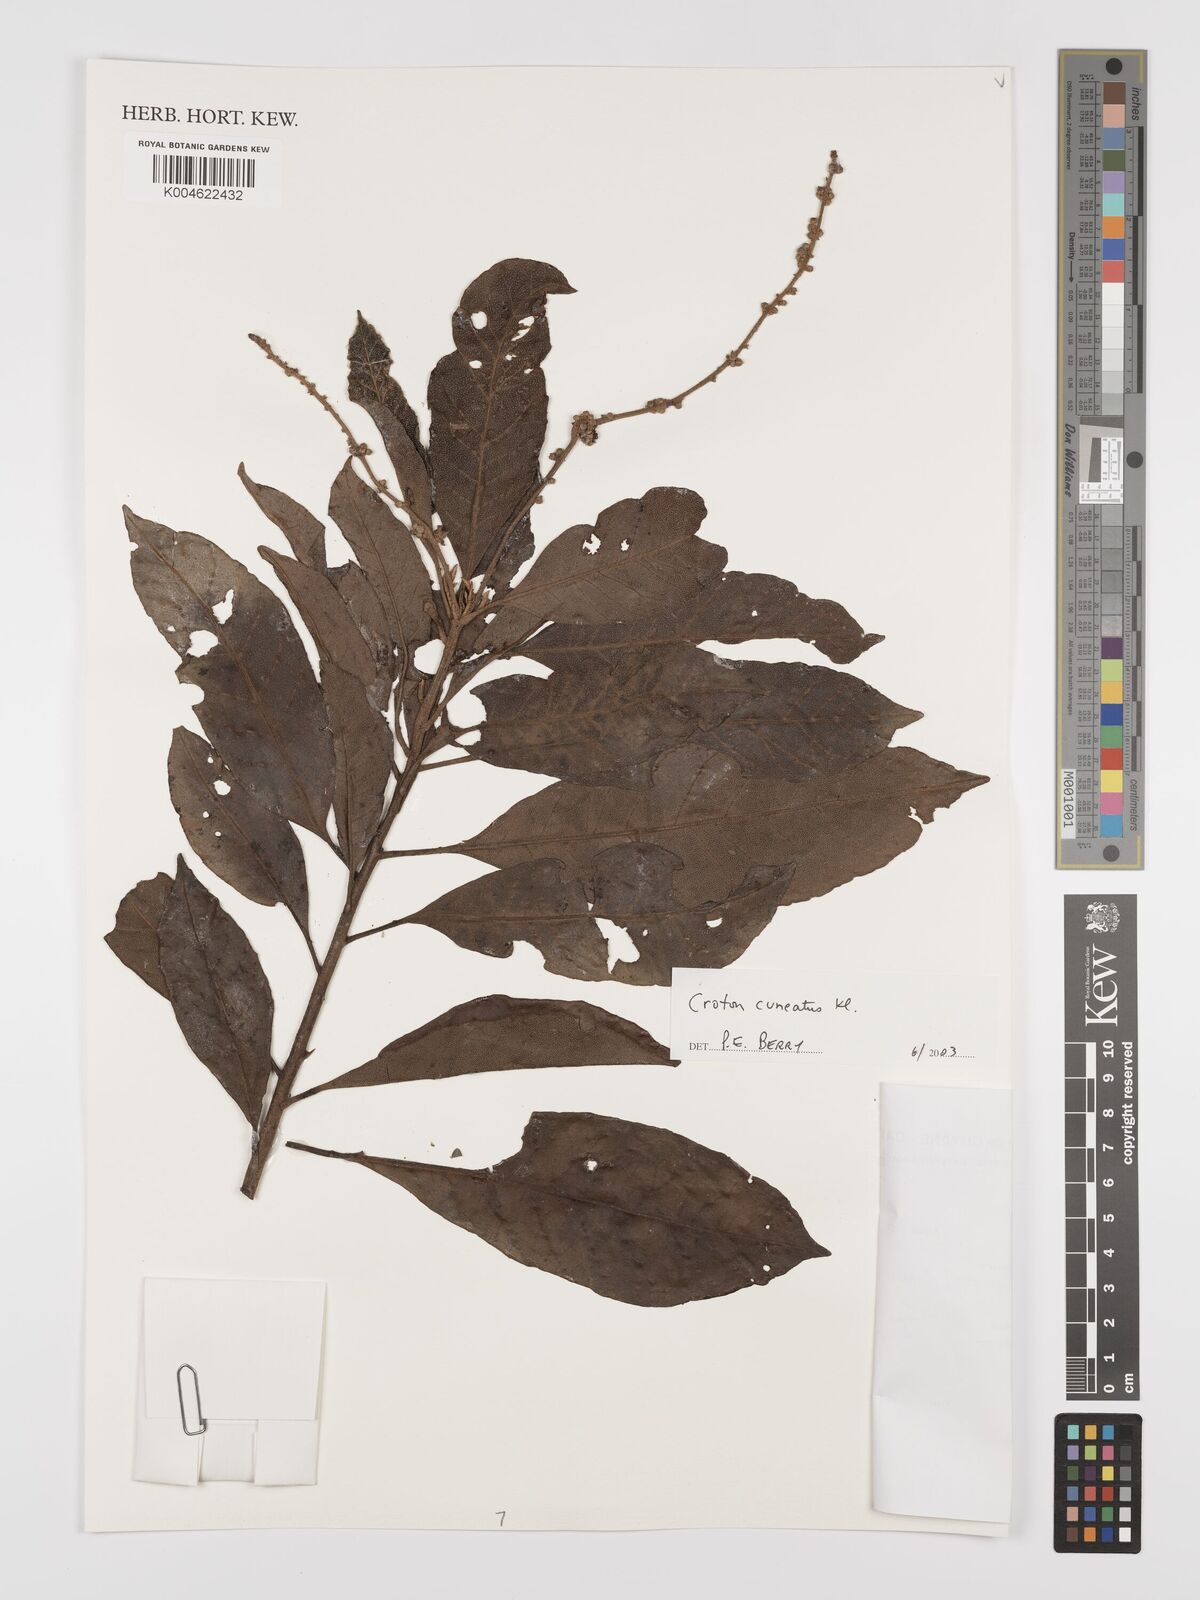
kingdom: Plantae
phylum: Tracheophyta
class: Magnoliopsida
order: Malpighiales
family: Euphorbiaceae
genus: Croton
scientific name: Croton
